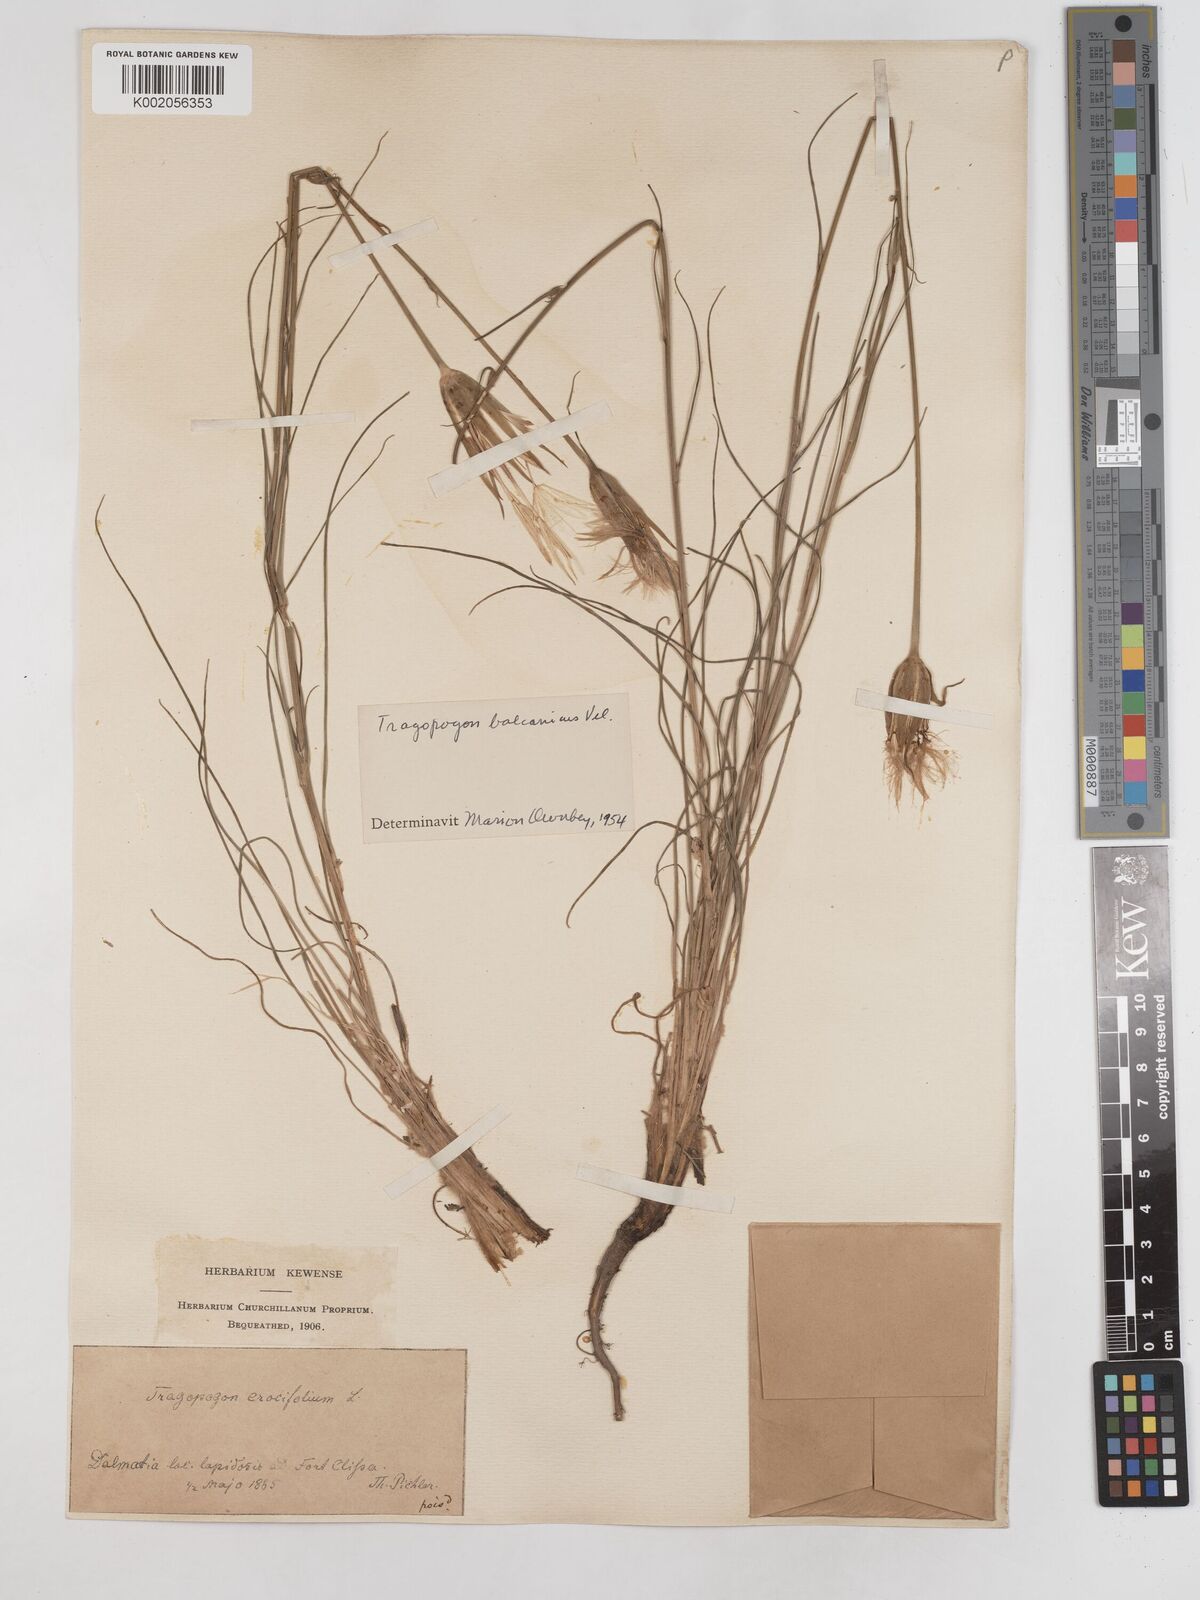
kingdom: Plantae
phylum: Tracheophyta
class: Magnoliopsida
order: Asterales
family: Asteraceae
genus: Tragopogon
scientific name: Tragopogon balcanicus
